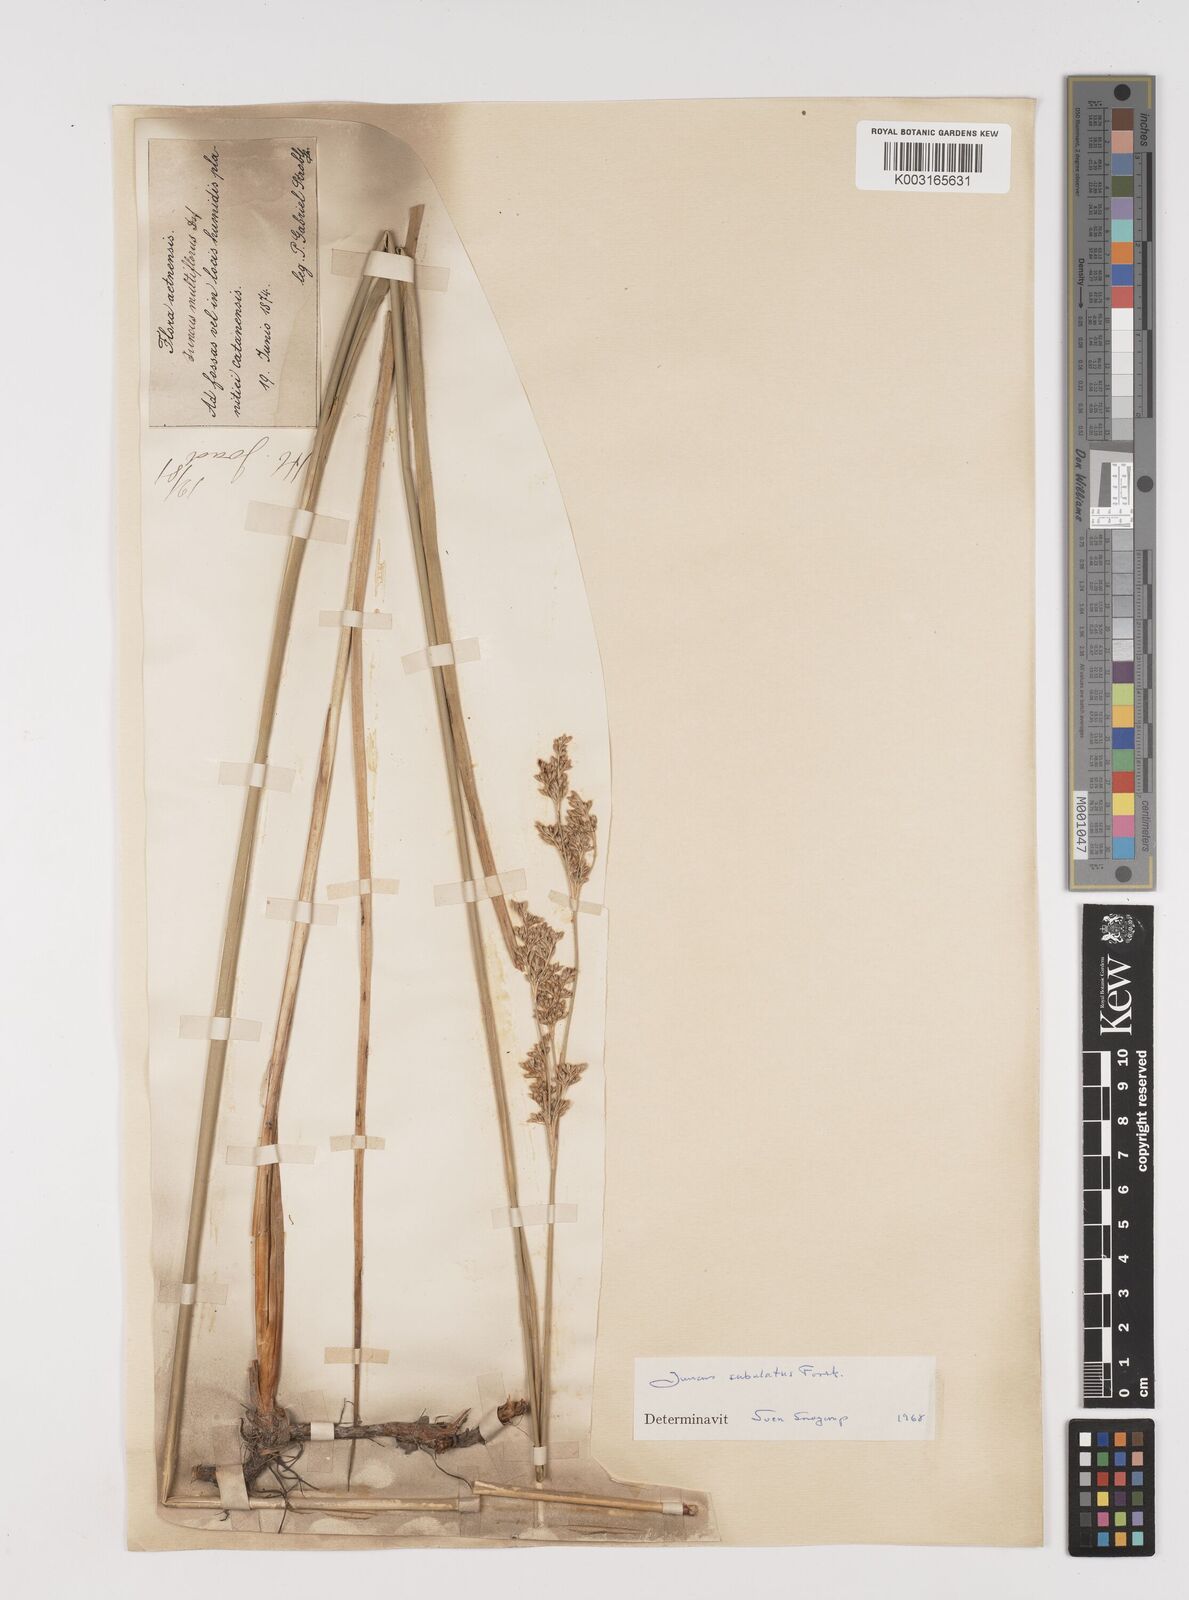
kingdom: Plantae
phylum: Tracheophyta
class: Liliopsida
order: Poales
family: Juncaceae
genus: Juncus
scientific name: Juncus subulatus
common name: Somerset rush
